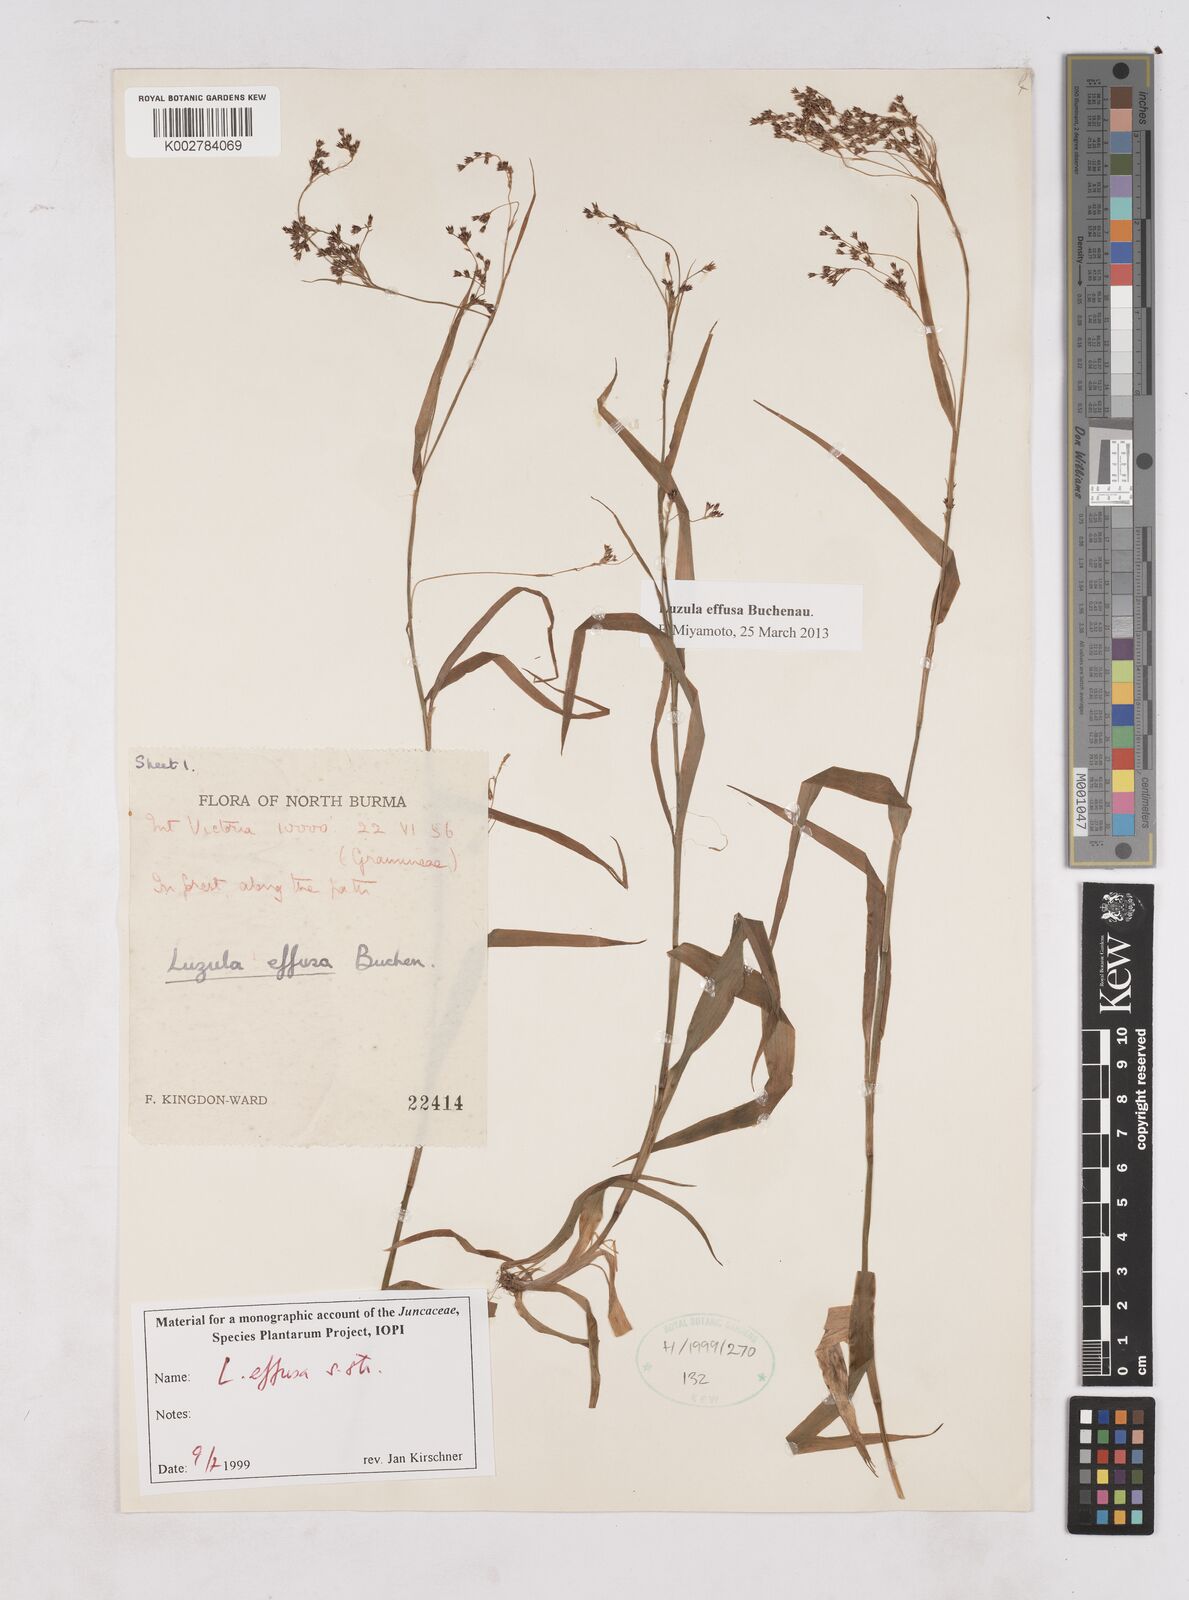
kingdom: Plantae
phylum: Tracheophyta
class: Liliopsida
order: Poales
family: Juncaceae
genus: Luzula
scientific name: Luzula effusa
